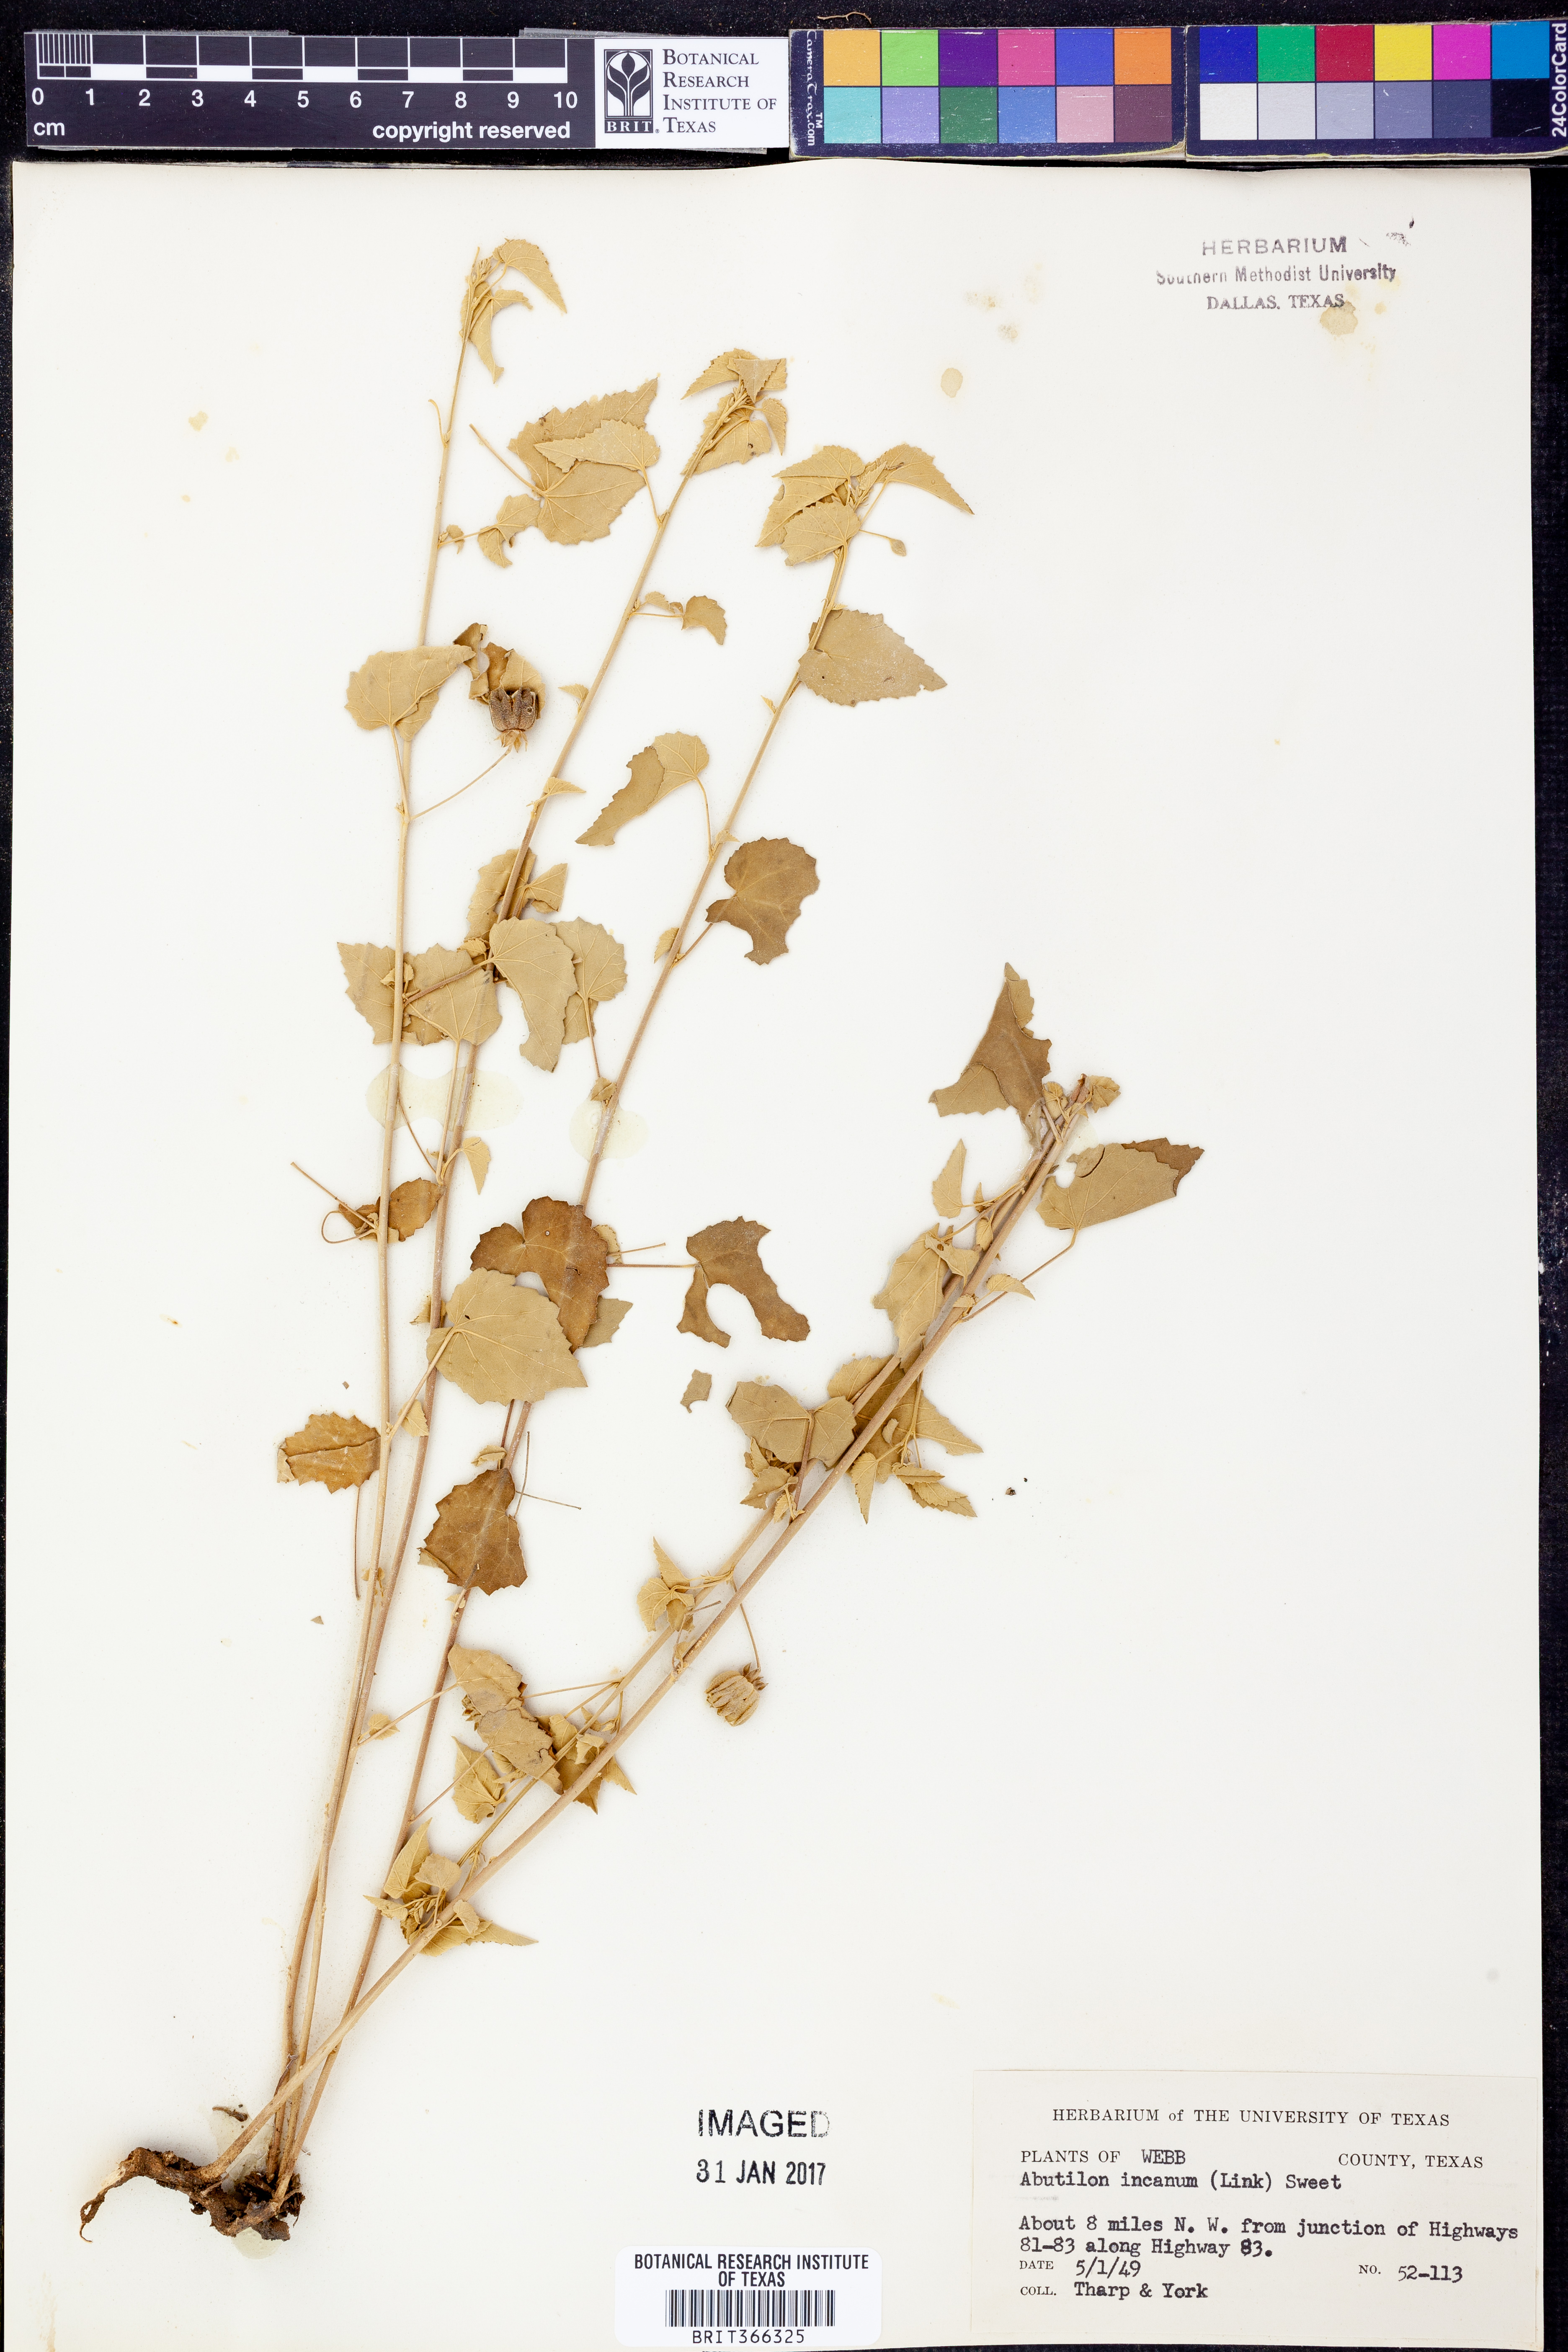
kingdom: Plantae
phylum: Tracheophyta
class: Magnoliopsida
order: Malvales
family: Malvaceae
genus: Abutilon
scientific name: Abutilon incanum
